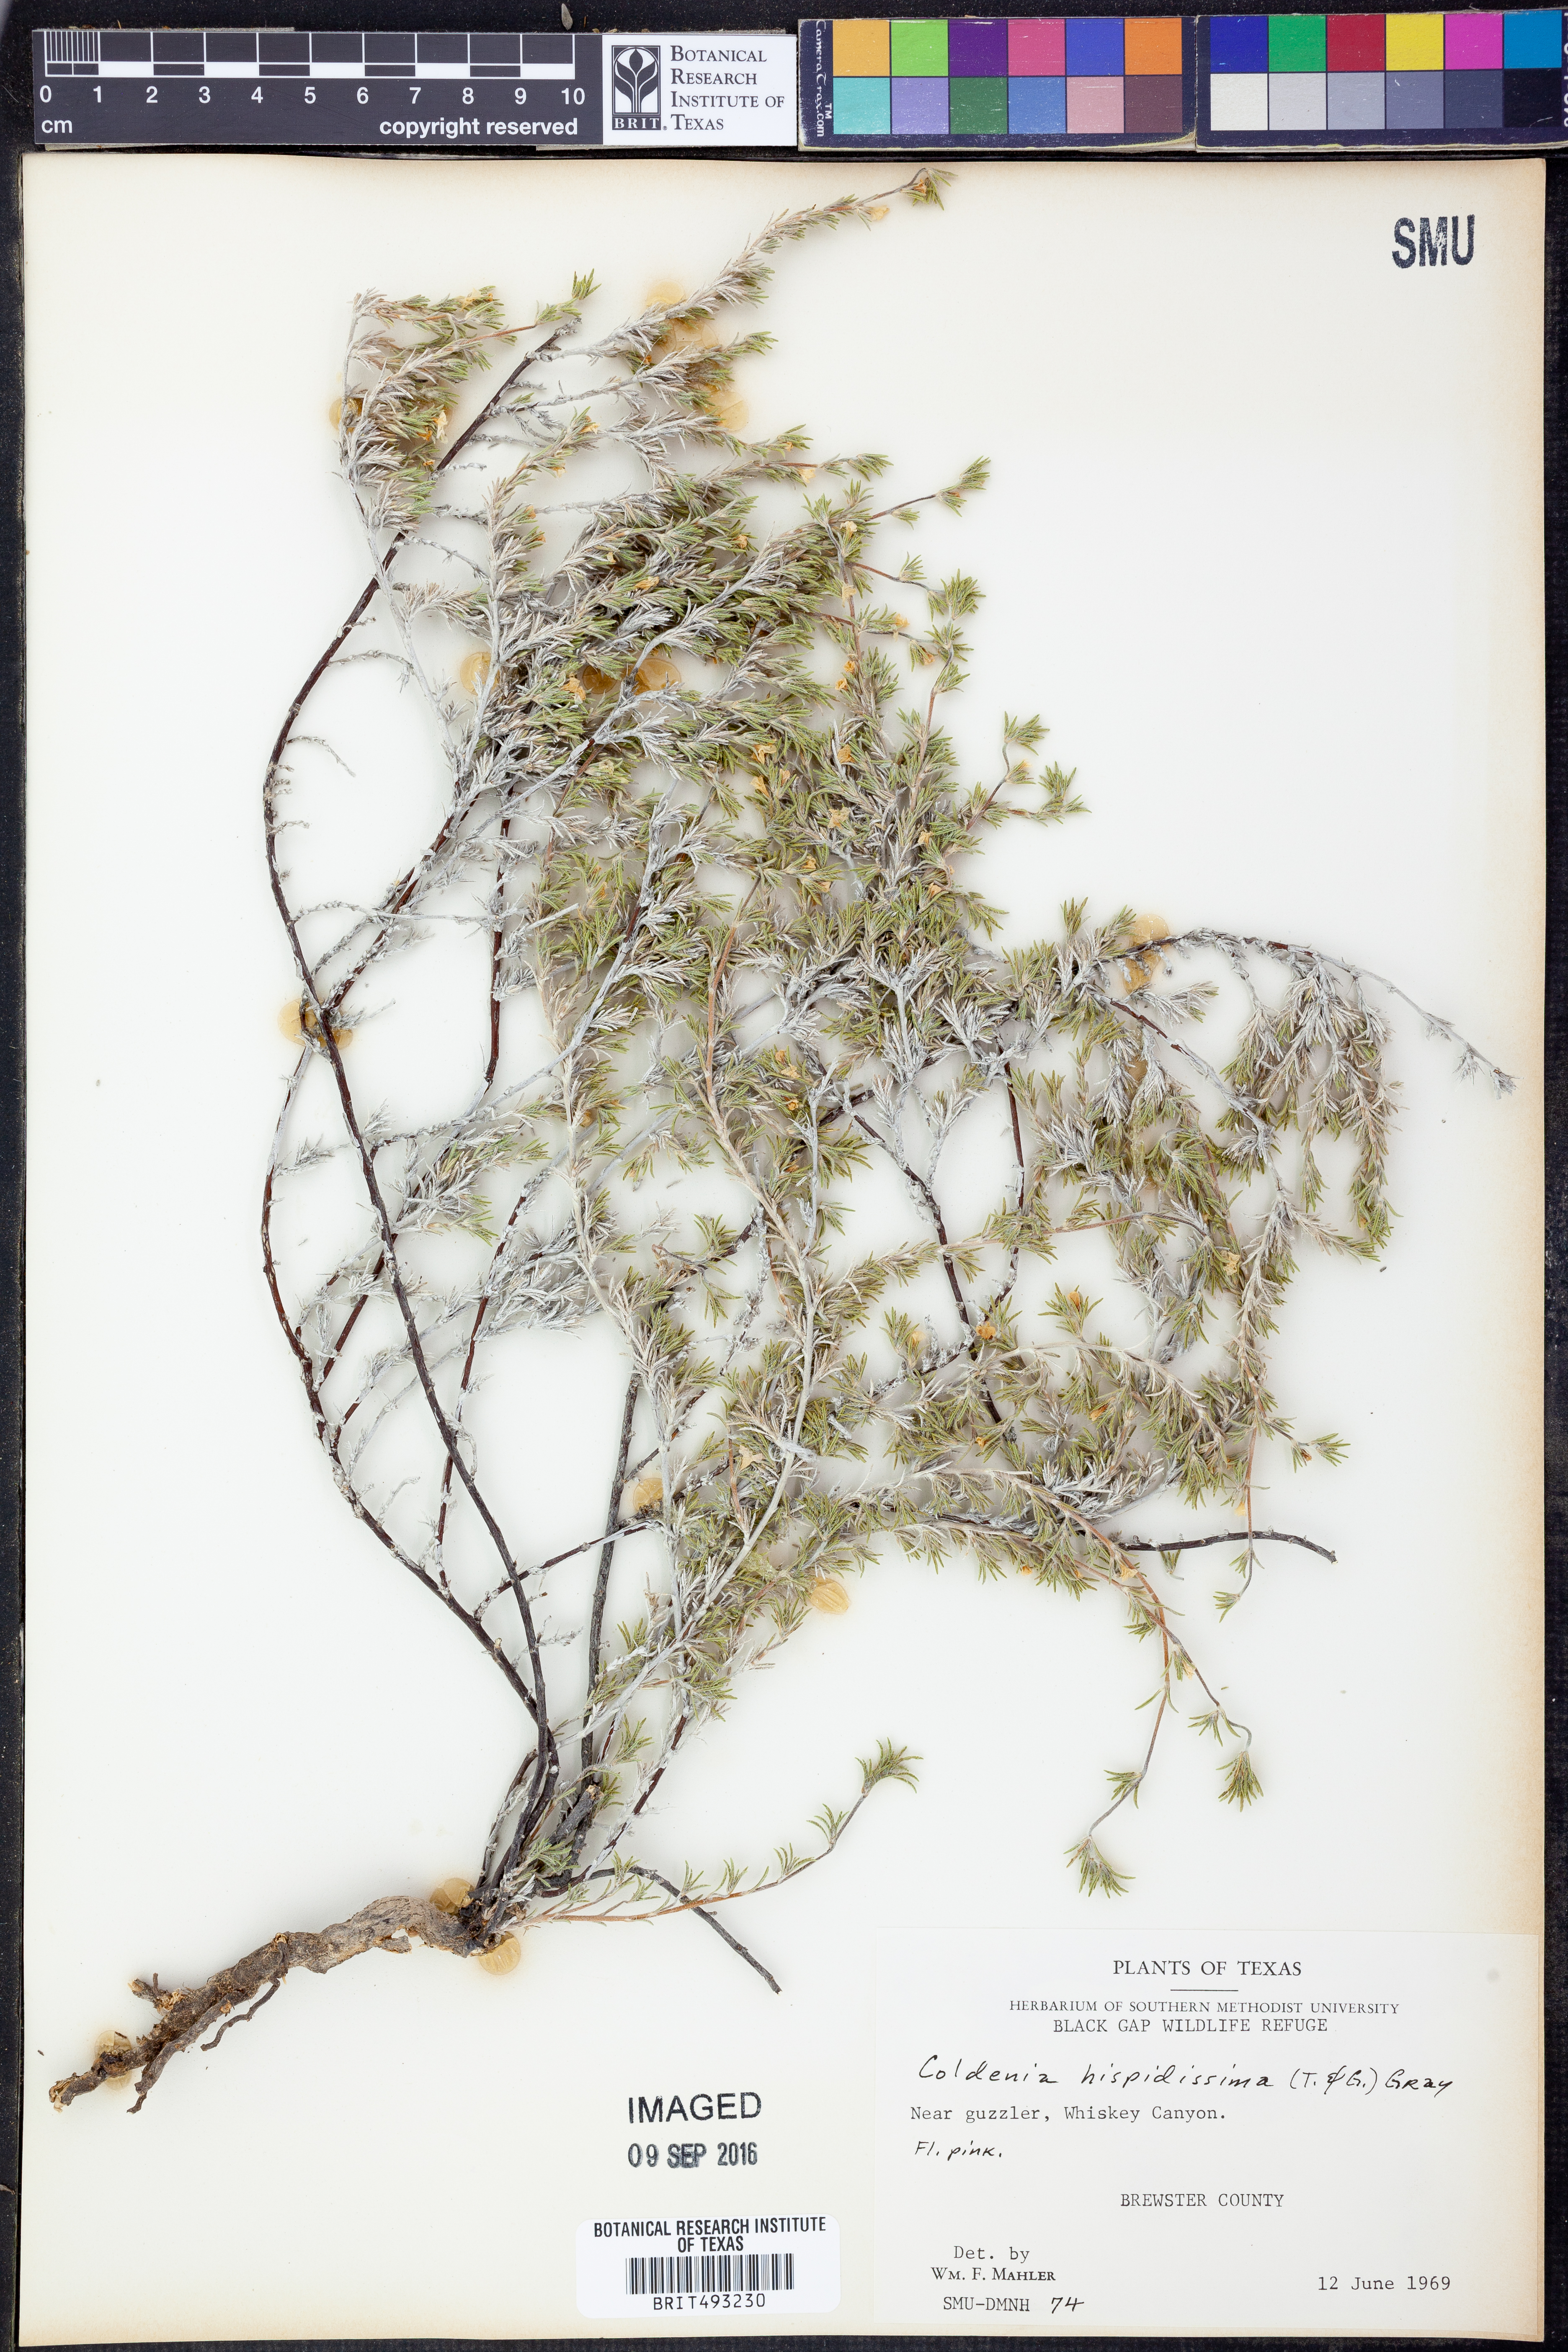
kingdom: Plantae
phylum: Tracheophyta
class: Magnoliopsida
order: Boraginales
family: Ehretiaceae
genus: Tiquilia
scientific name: Tiquilia hispidissima
